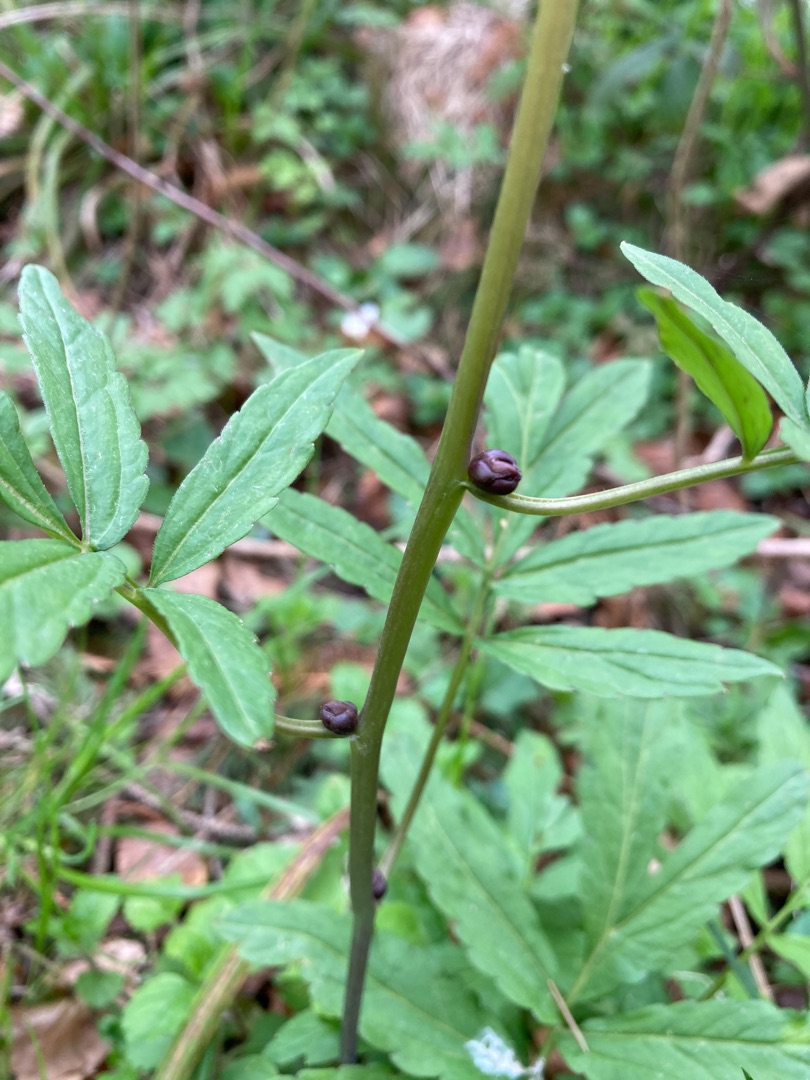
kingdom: Plantae
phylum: Tracheophyta
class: Magnoliopsida
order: Brassicales
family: Brassicaceae
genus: Cardamine
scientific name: Cardamine bulbifera
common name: Tandrod
